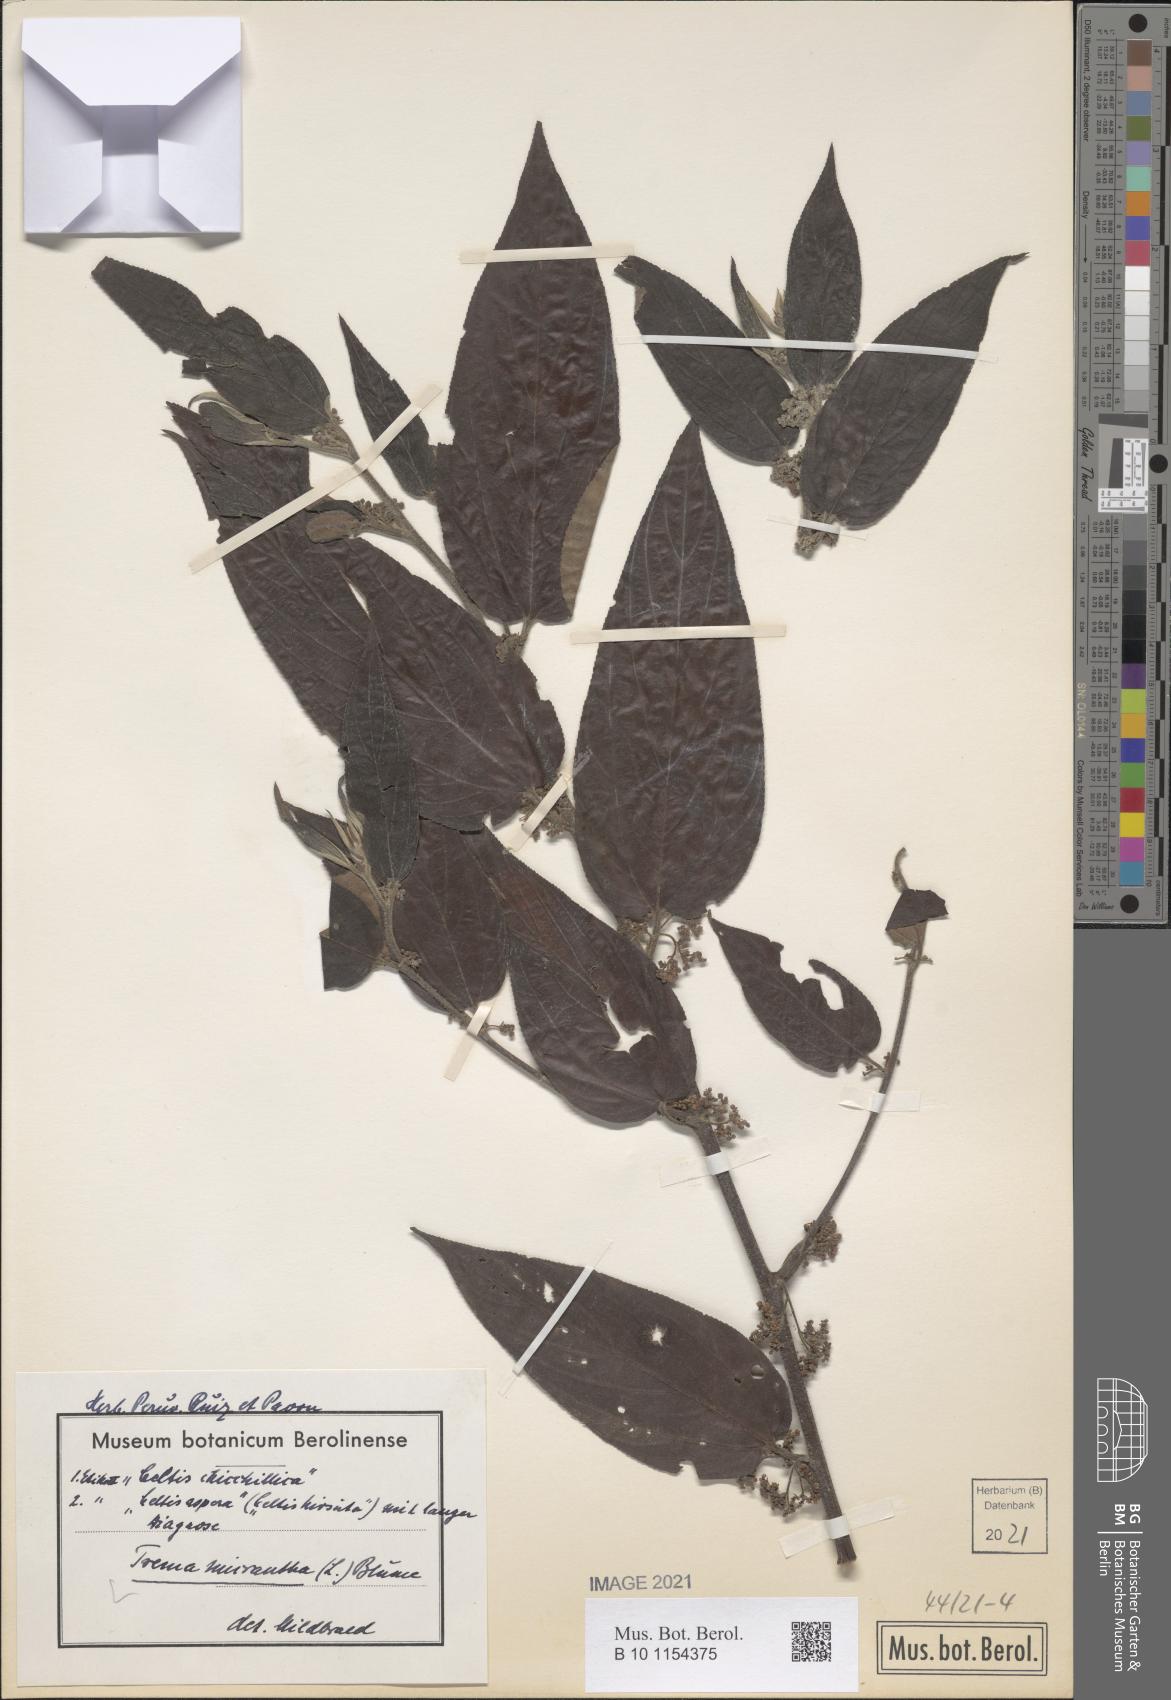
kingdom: Plantae
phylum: Tracheophyta
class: Magnoliopsida
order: Rosales
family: Cannabaceae
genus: Trema
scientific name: Trema micranthum
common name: Jamaican nettletree
